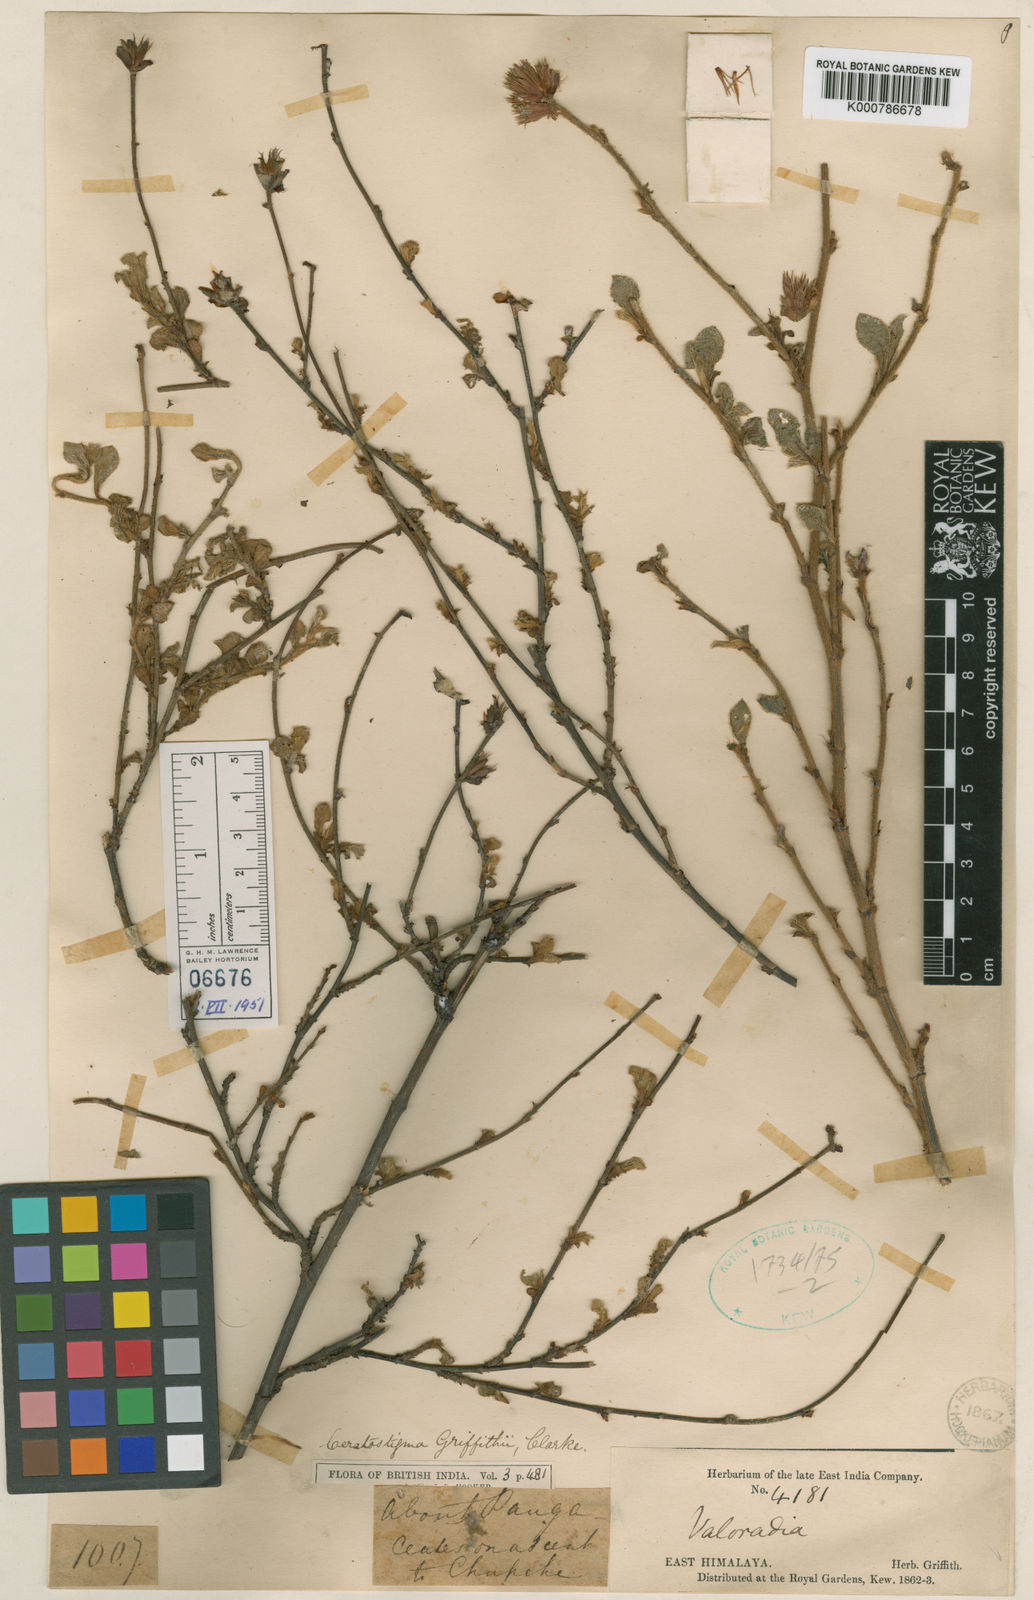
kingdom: Plantae
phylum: Tracheophyta
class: Magnoliopsida
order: Caryophyllales
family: Plumbaginaceae
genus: Ceratostigma
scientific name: Ceratostigma griffithii
